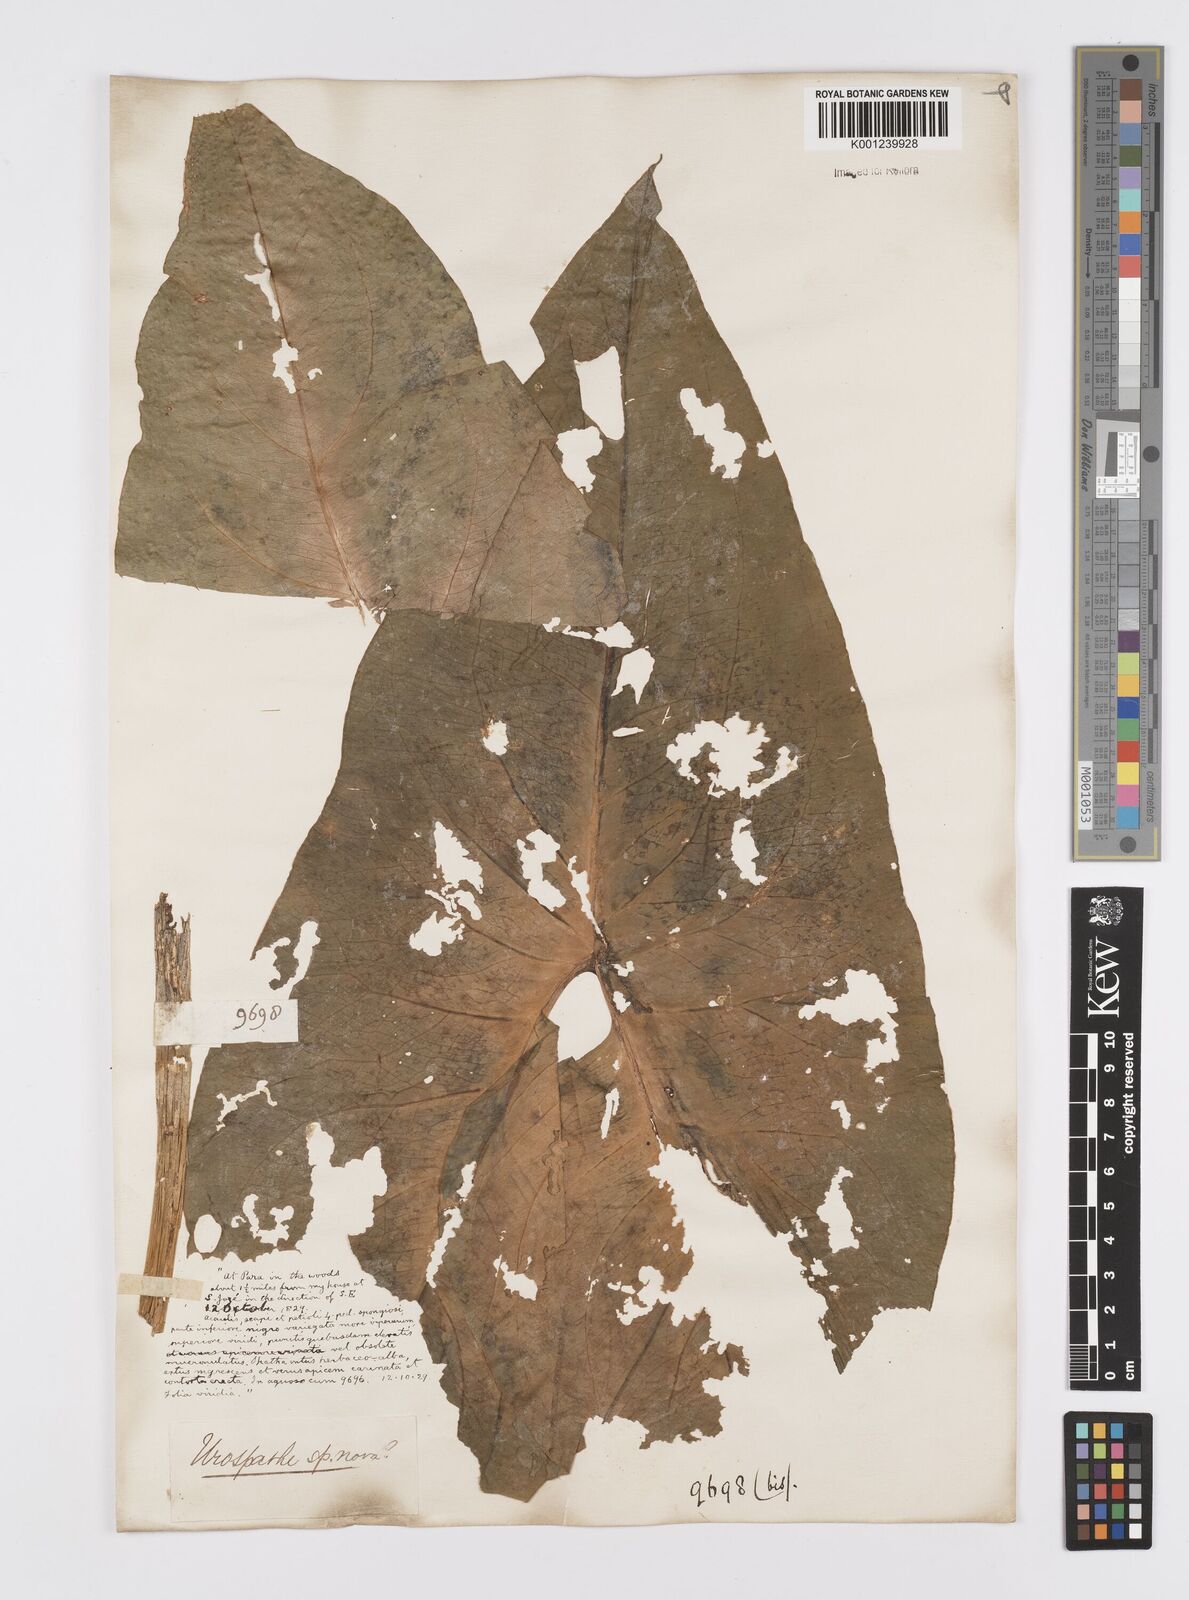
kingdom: Plantae
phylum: Tracheophyta
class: Liliopsida
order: Alismatales
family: Araceae
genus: Urospatha
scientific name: Urospatha sagittifolia
